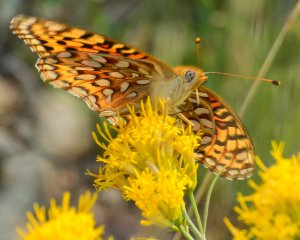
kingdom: Animalia
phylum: Arthropoda
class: Insecta
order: Lepidoptera
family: Nymphalidae
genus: Speyeria
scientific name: Speyeria mormonia
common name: Mormon Fritillary
